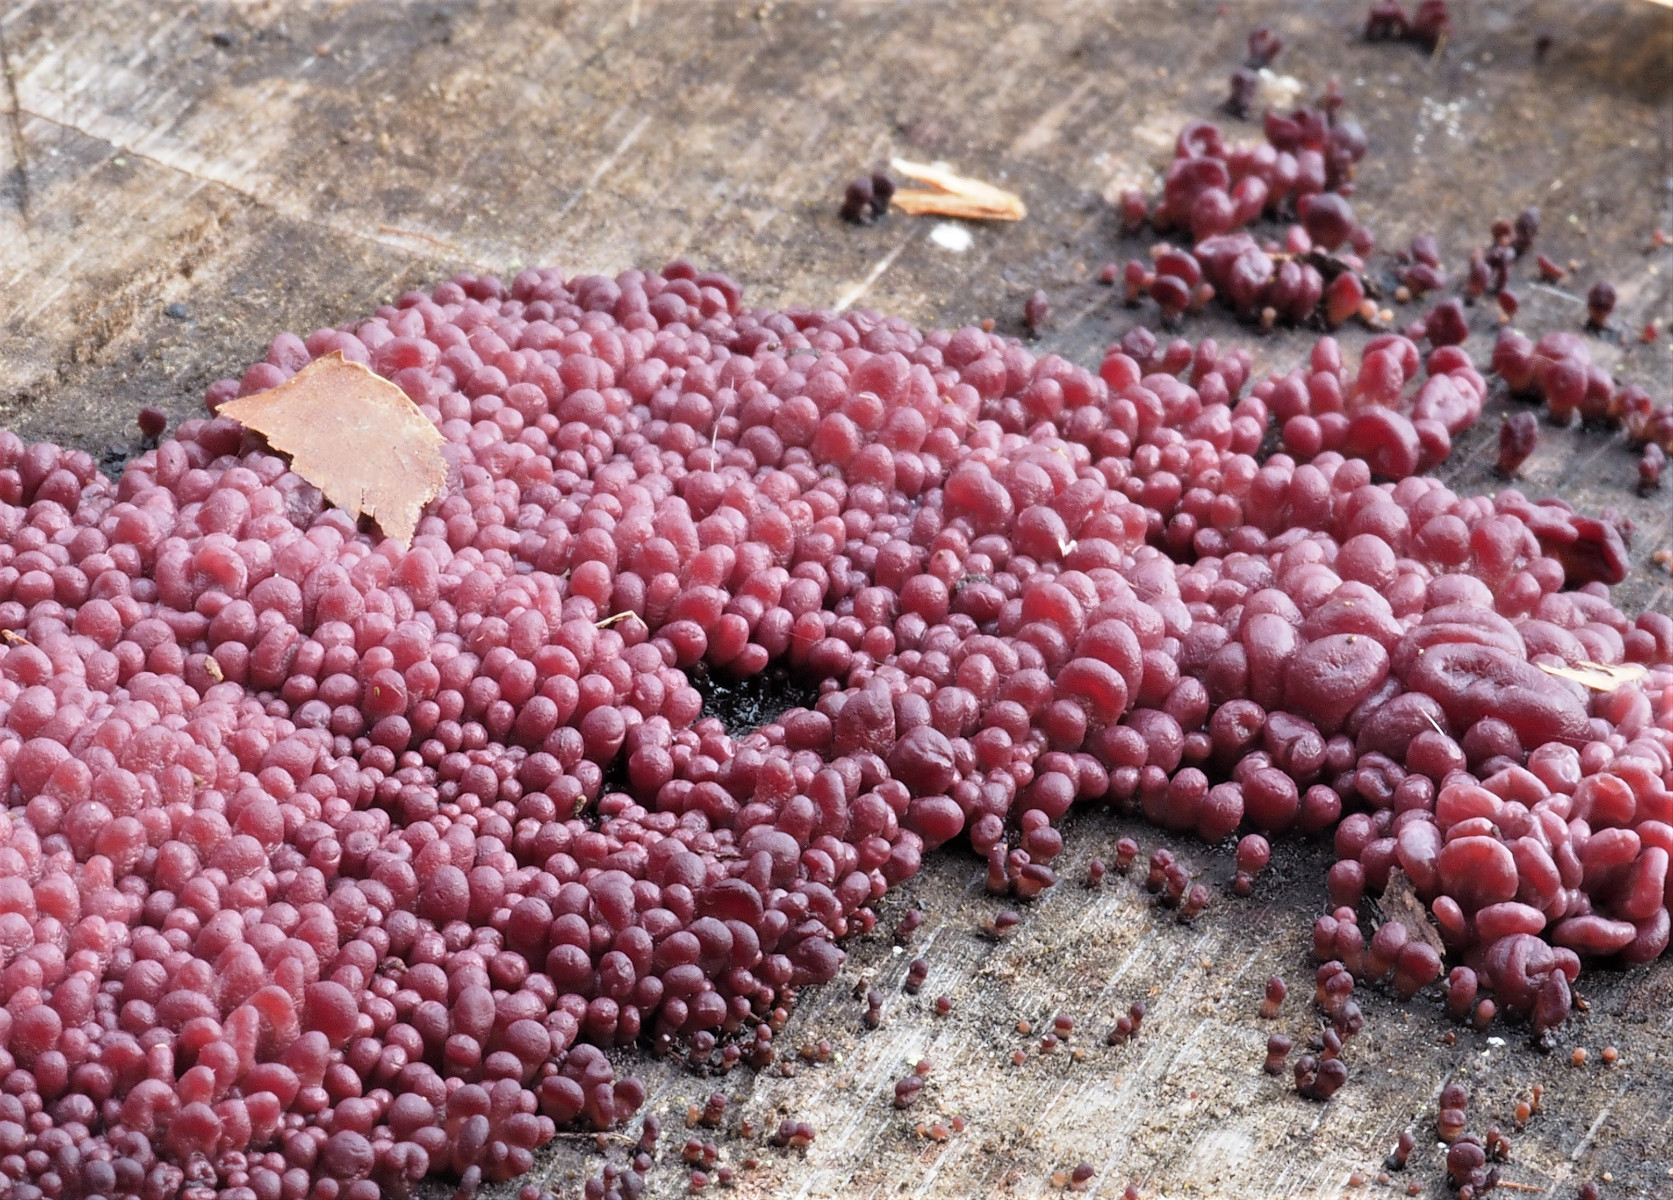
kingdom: Fungi
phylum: Ascomycota
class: Leotiomycetes
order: Helotiales
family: Gelatinodiscaceae
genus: Ascocoryne
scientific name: Ascocoryne sarcoides
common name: rødlilla sejskive
